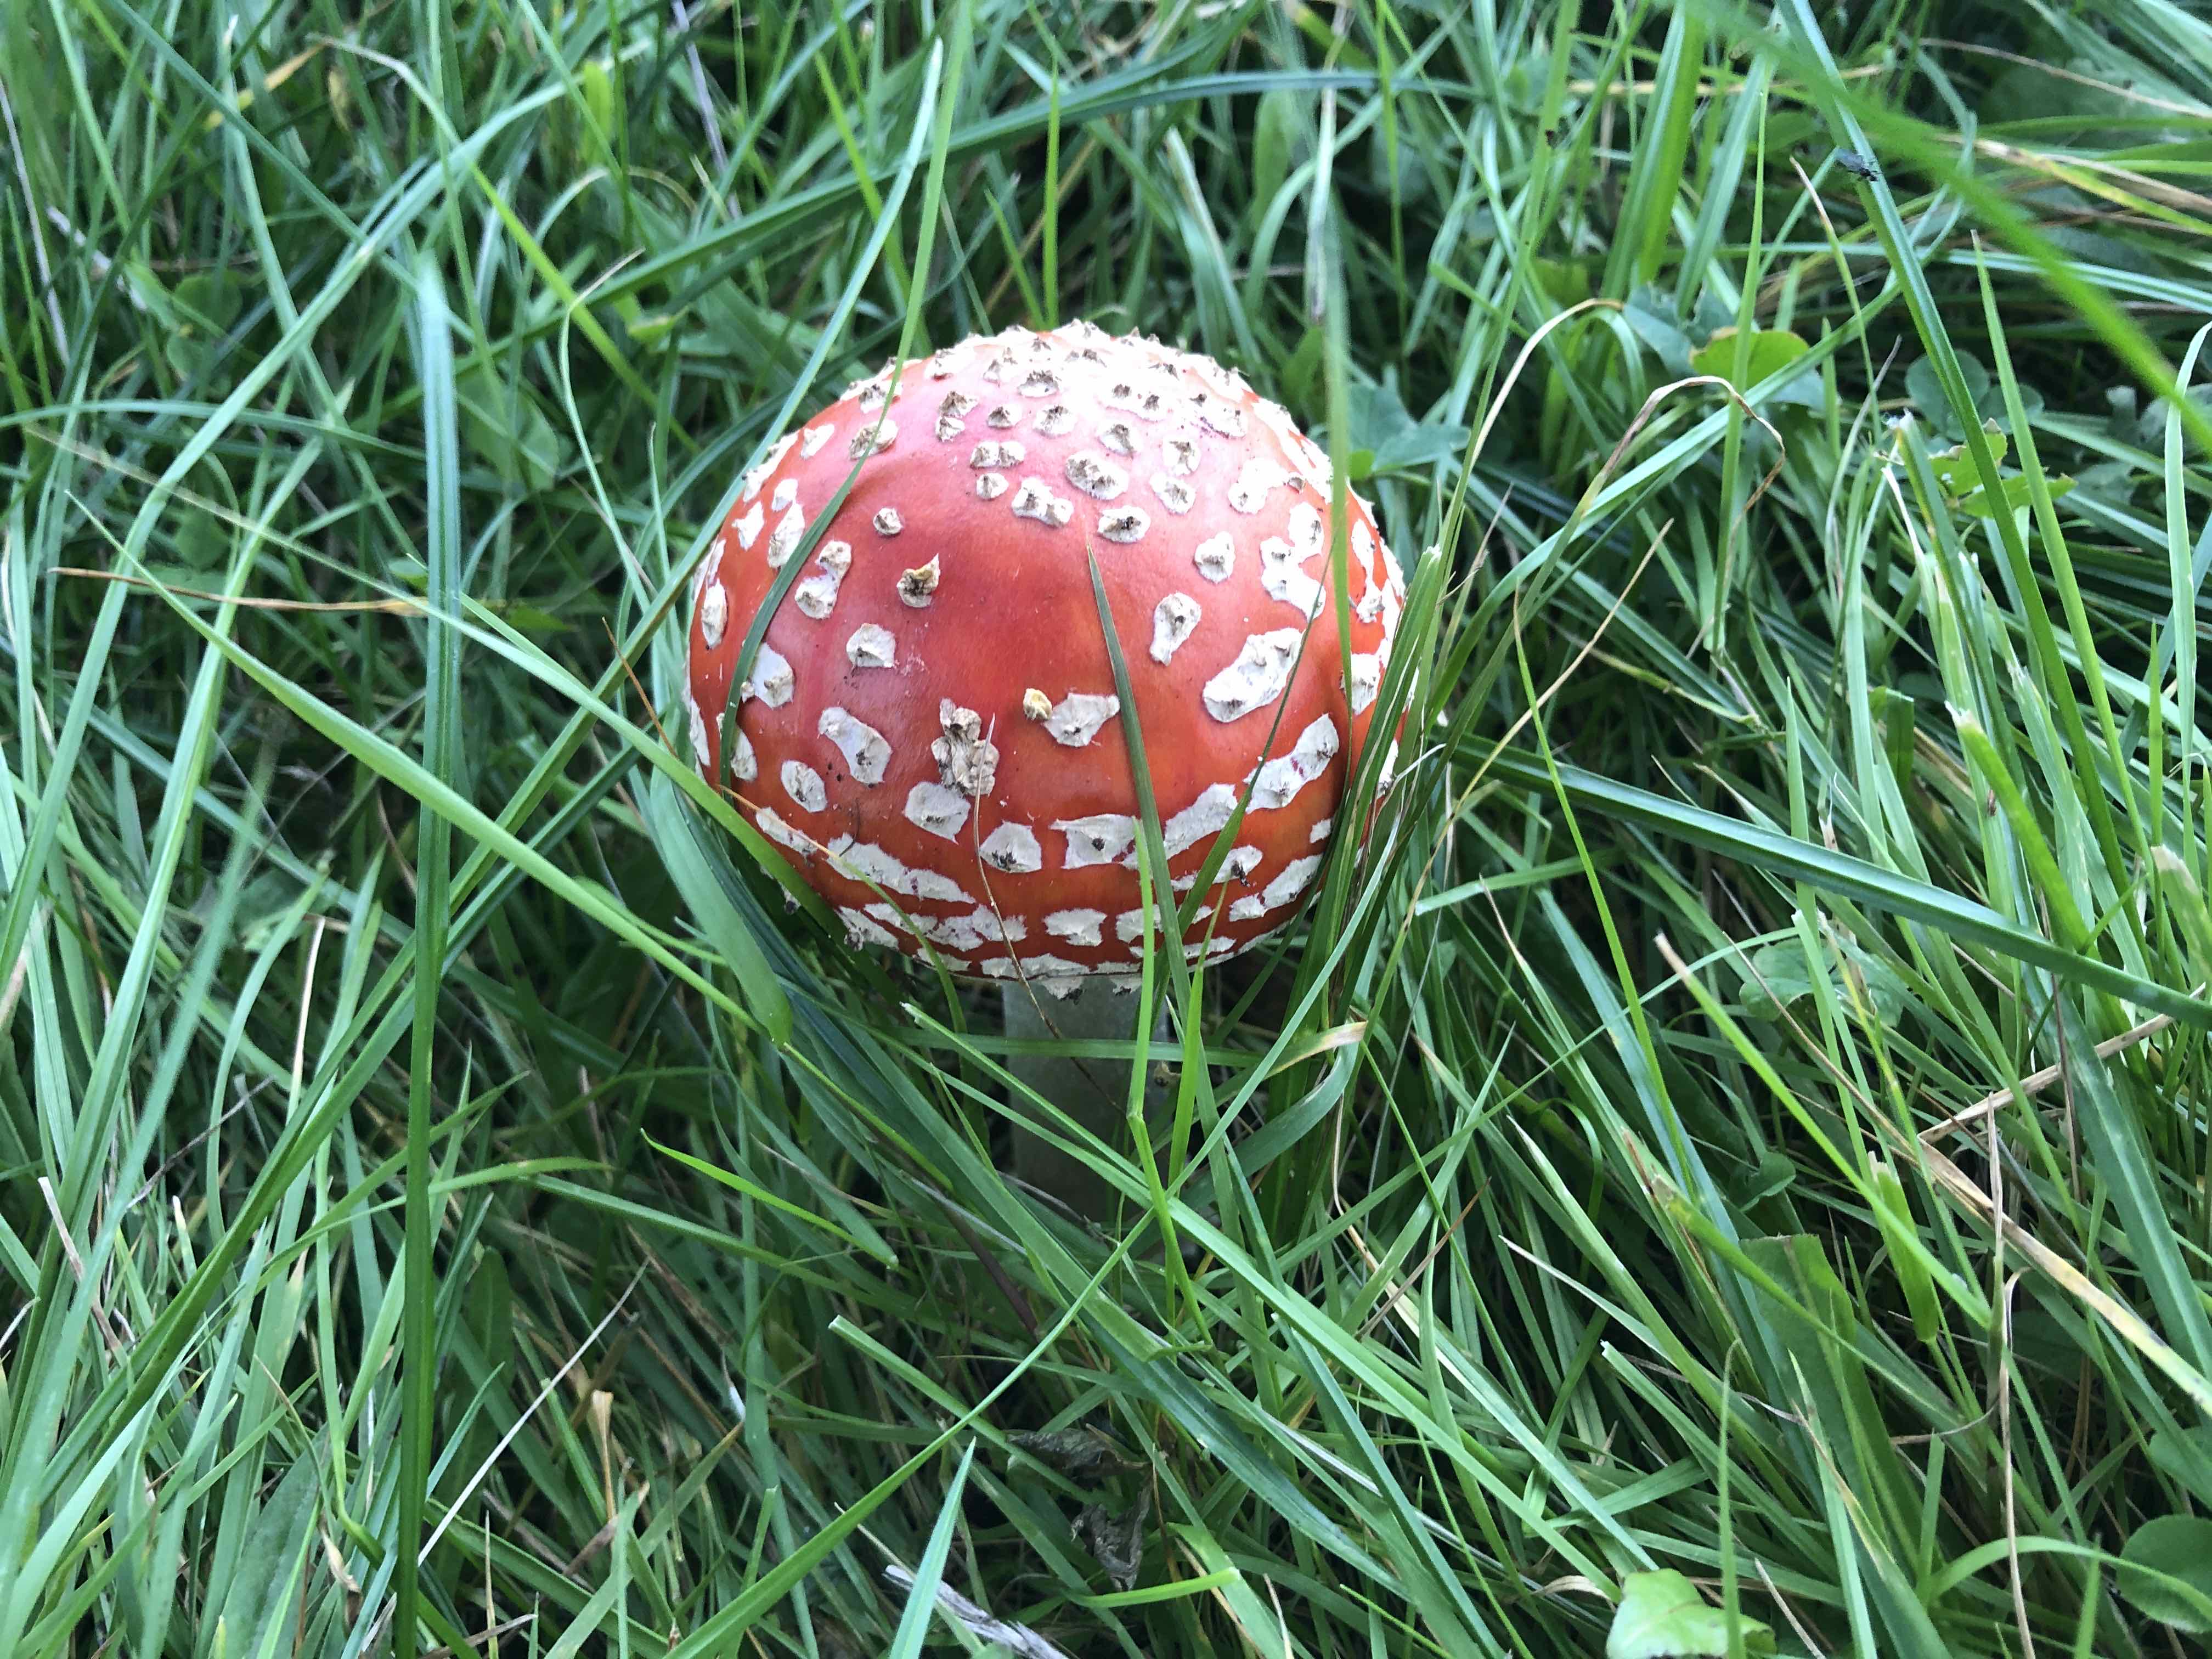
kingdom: Fungi
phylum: Basidiomycota
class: Agaricomycetes
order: Agaricales
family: Amanitaceae
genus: Amanita
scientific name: Amanita muscaria
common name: rød fluesvamp
